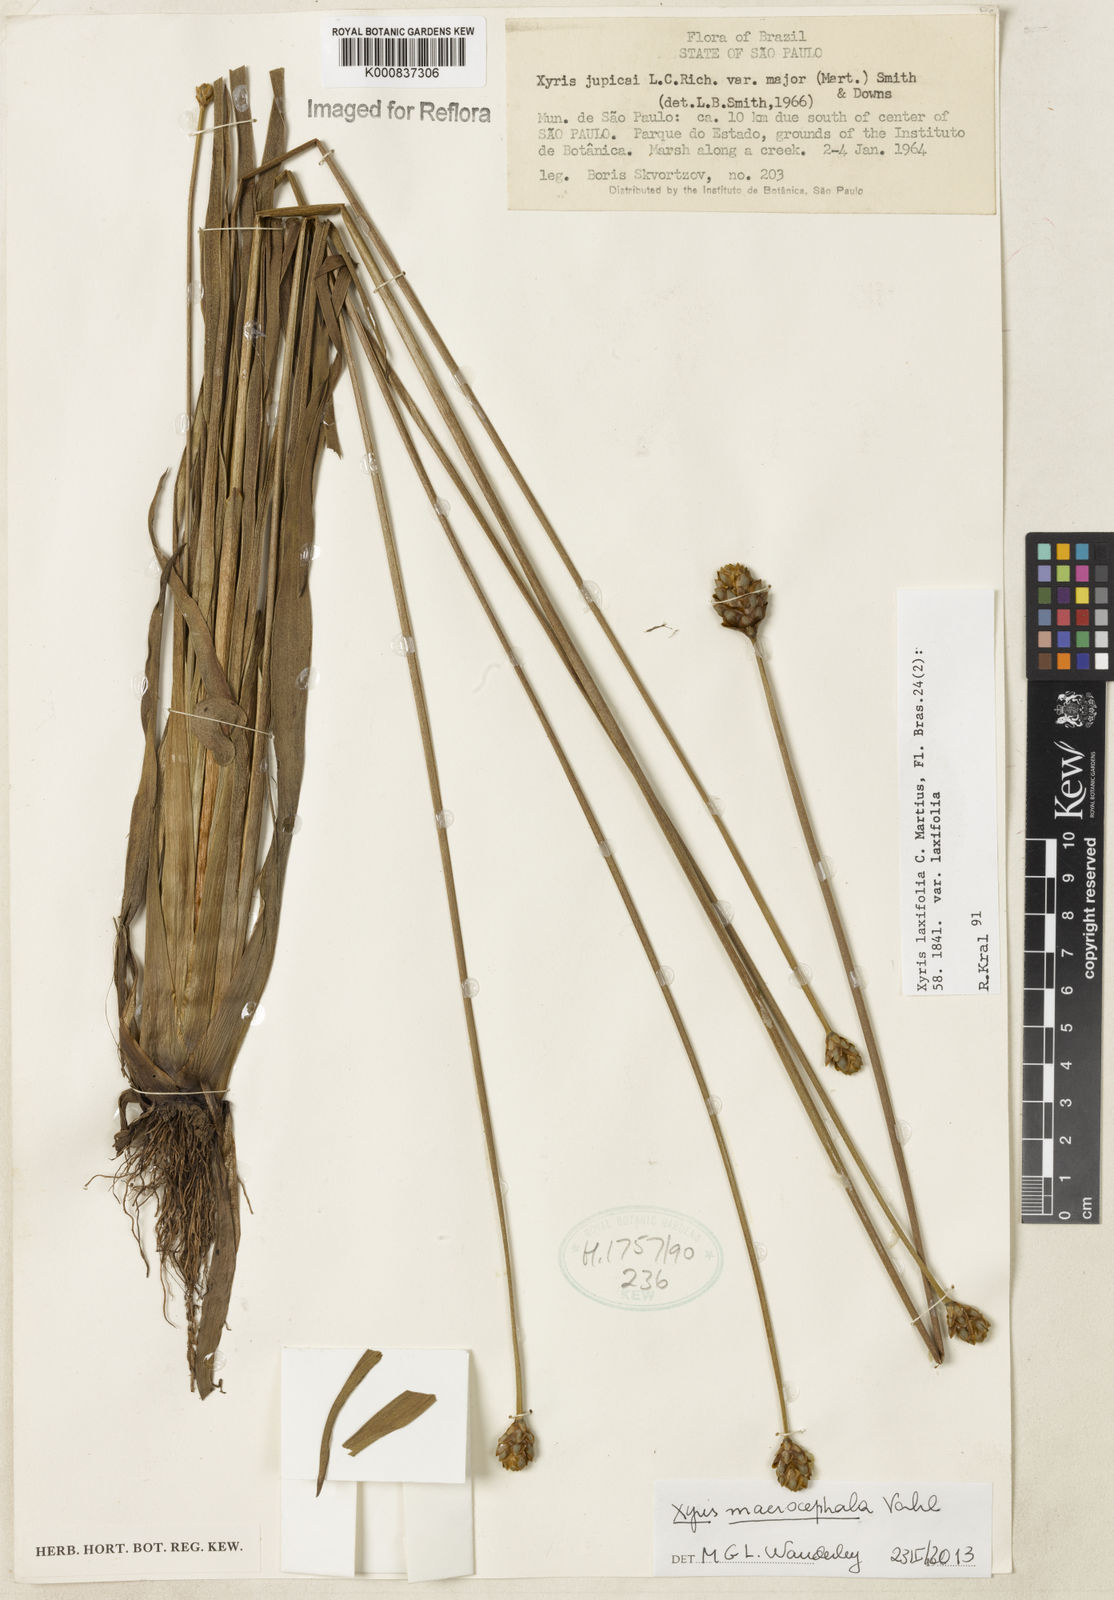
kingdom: Plantae
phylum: Tracheophyta
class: Liliopsida
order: Poales
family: Xyridaceae
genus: Xyris
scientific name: Xyris jupicai
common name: Richard's yelloweyed grass
